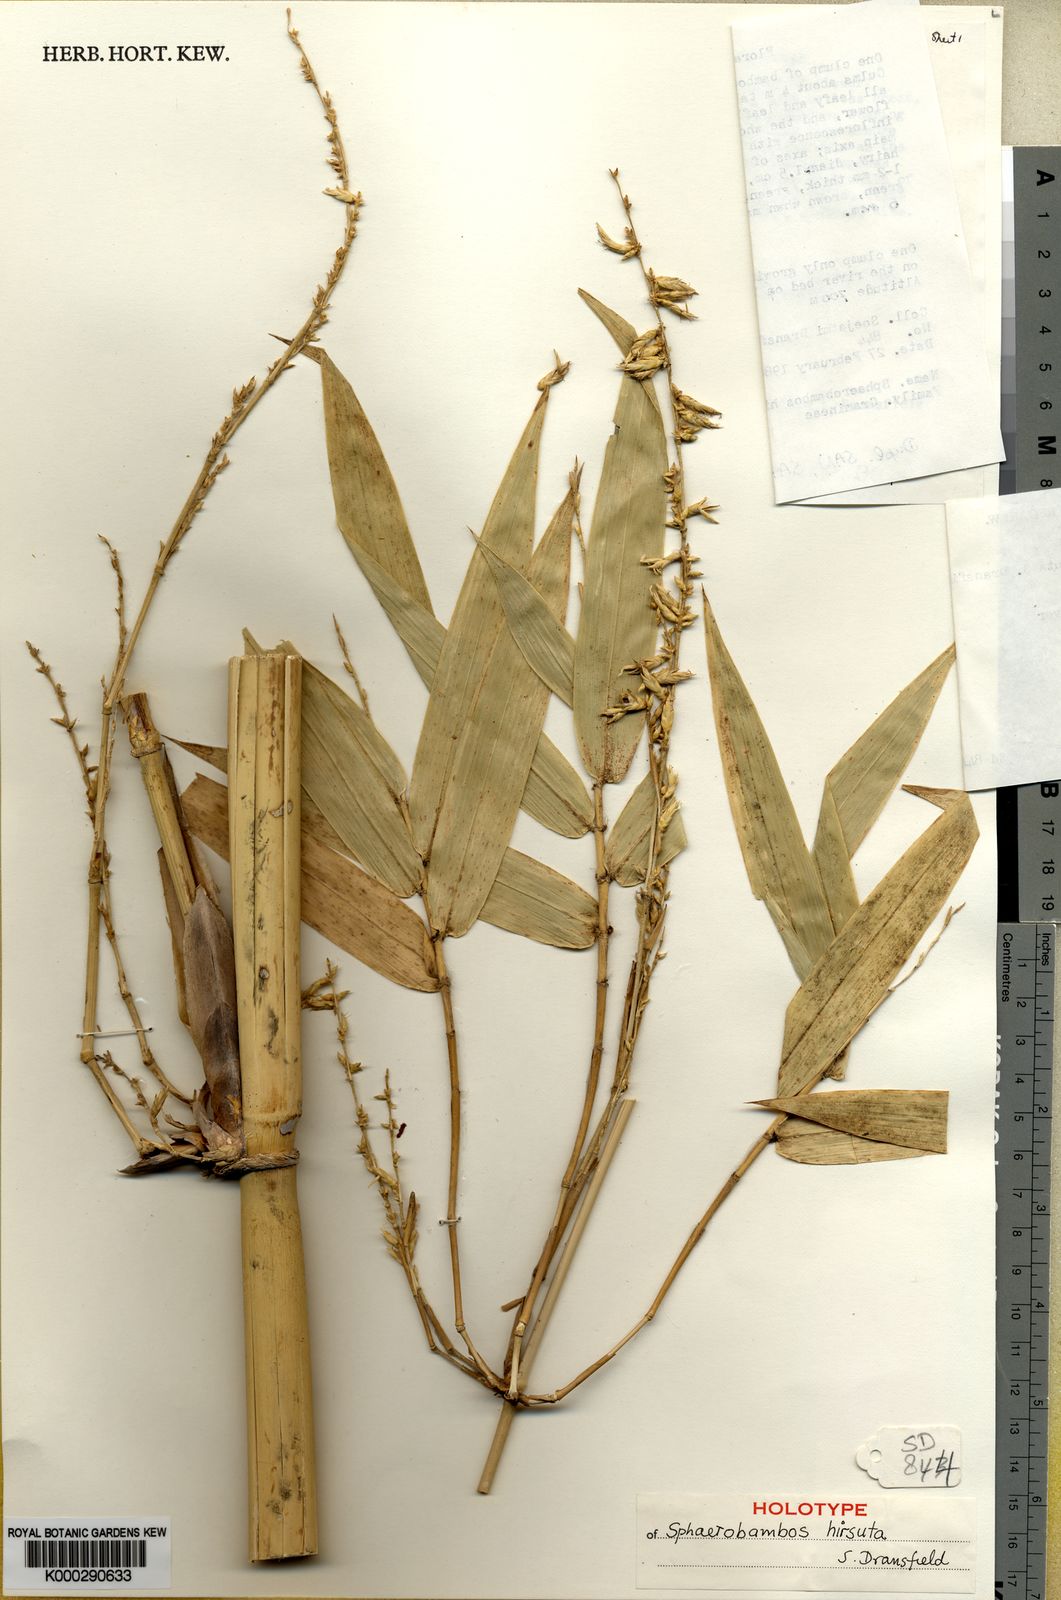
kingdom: Plantae
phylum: Tracheophyta
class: Liliopsida
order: Poales
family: Poaceae
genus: Sphaerobambos
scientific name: Sphaerobambos hirsuta
